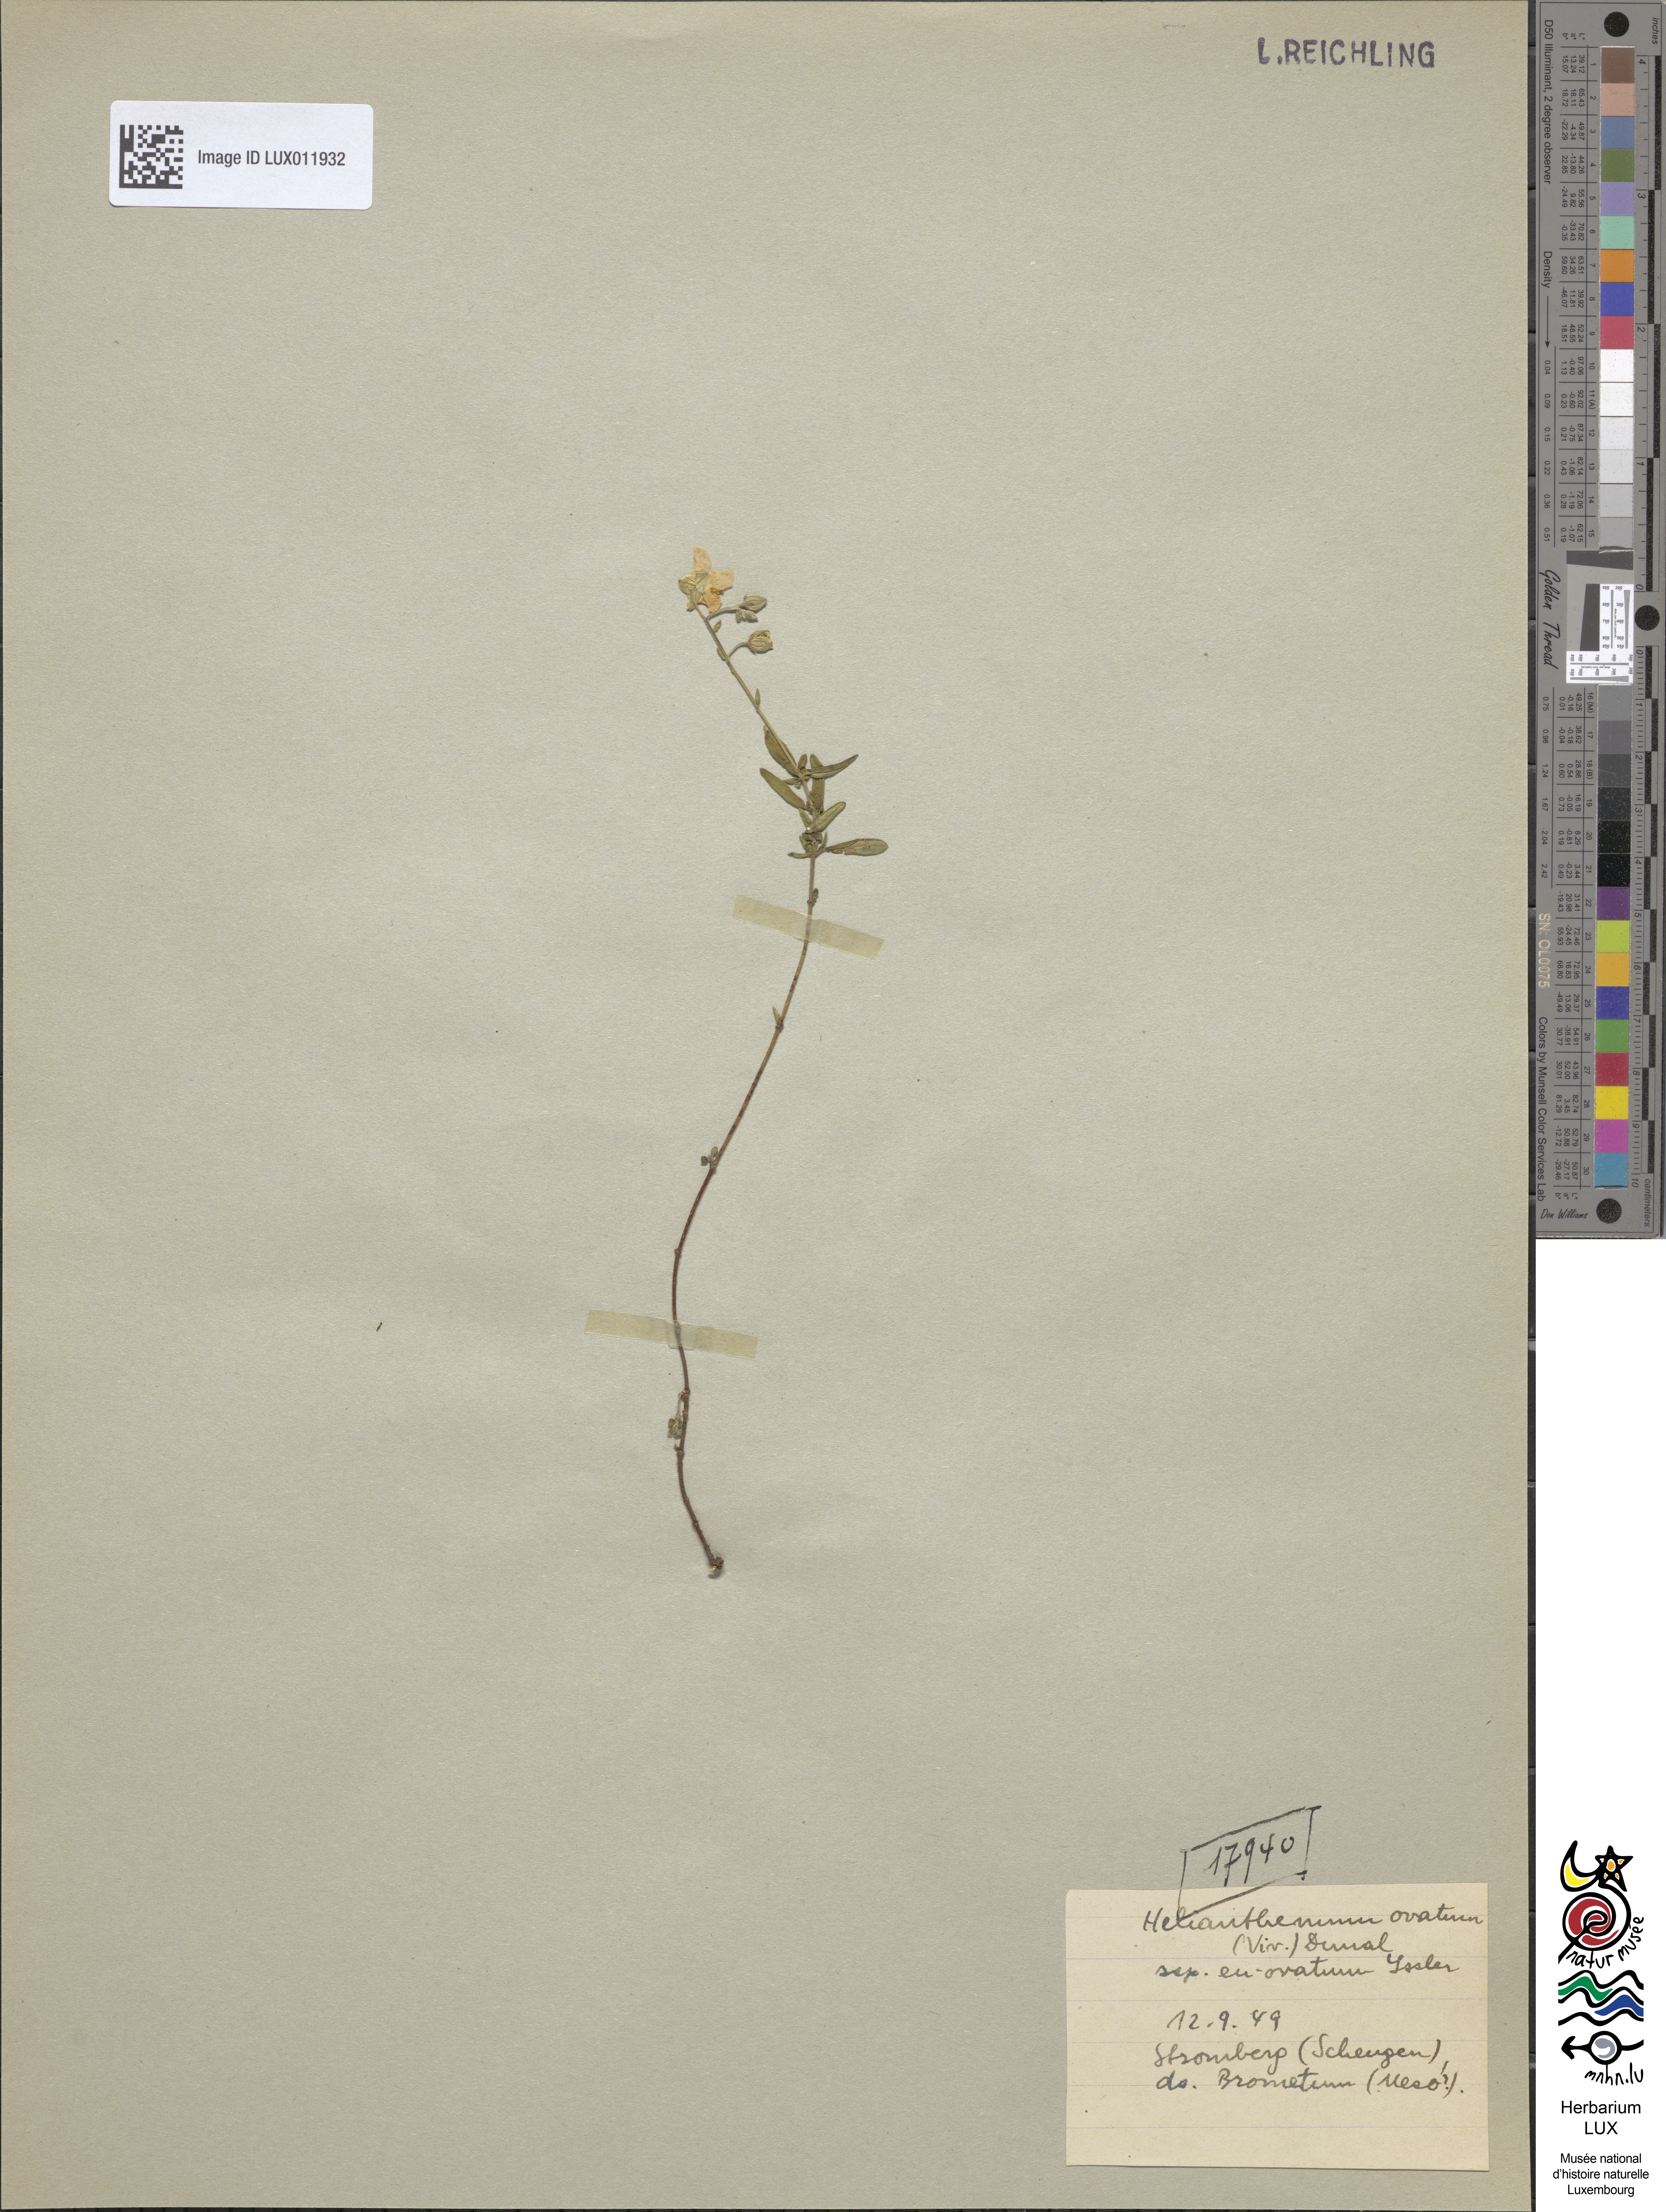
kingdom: Plantae
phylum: Tracheophyta
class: Magnoliopsida
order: Malvales
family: Cistaceae
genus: Helianthemum
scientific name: Helianthemum nummularium
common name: Common rock-rose
